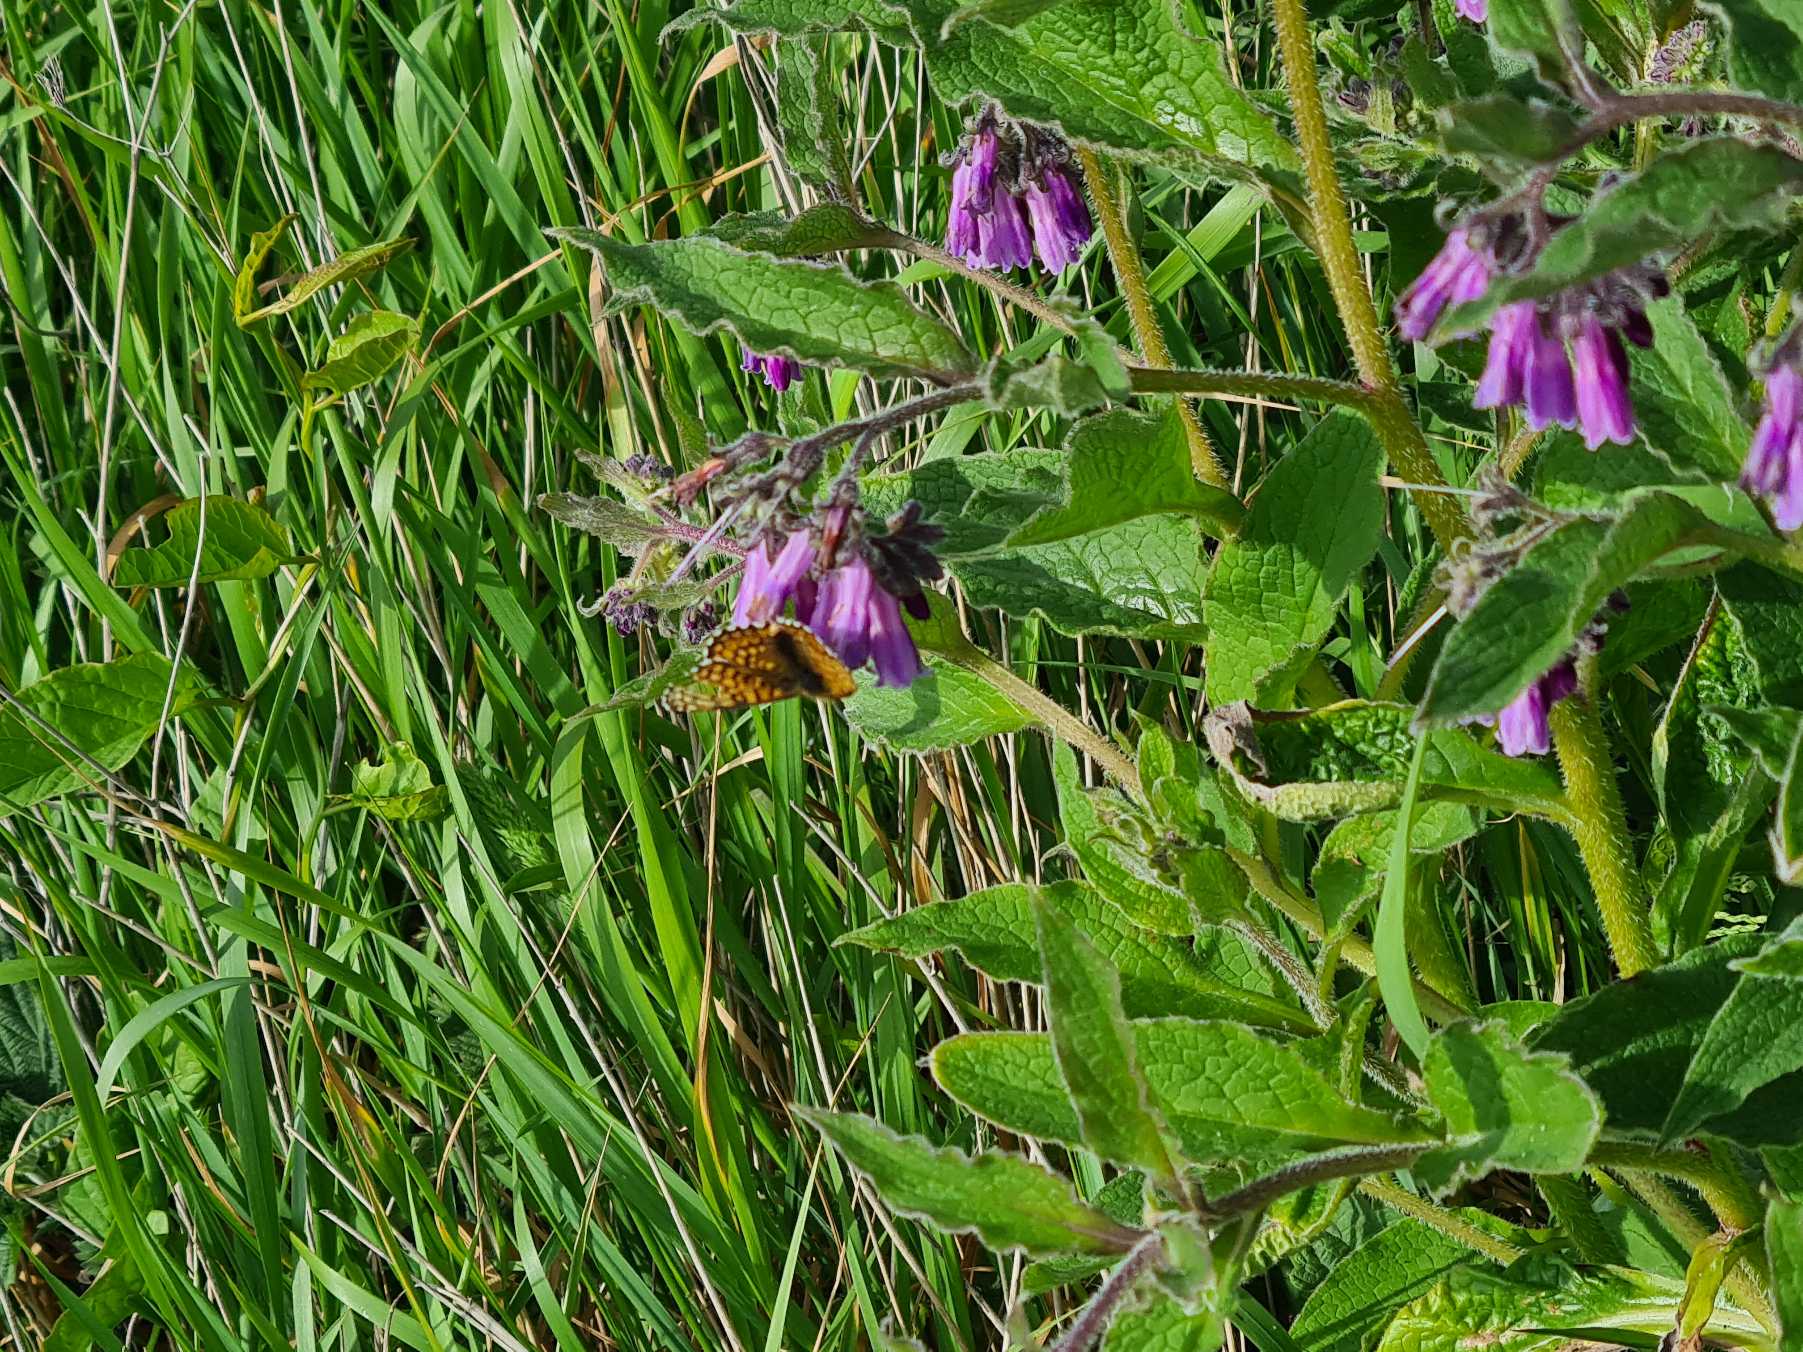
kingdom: Animalia
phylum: Arthropoda
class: Insecta
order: Lepidoptera
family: Nymphalidae
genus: Melitaea
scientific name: Melitaea cinxia
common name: Okkergul pletvinge
